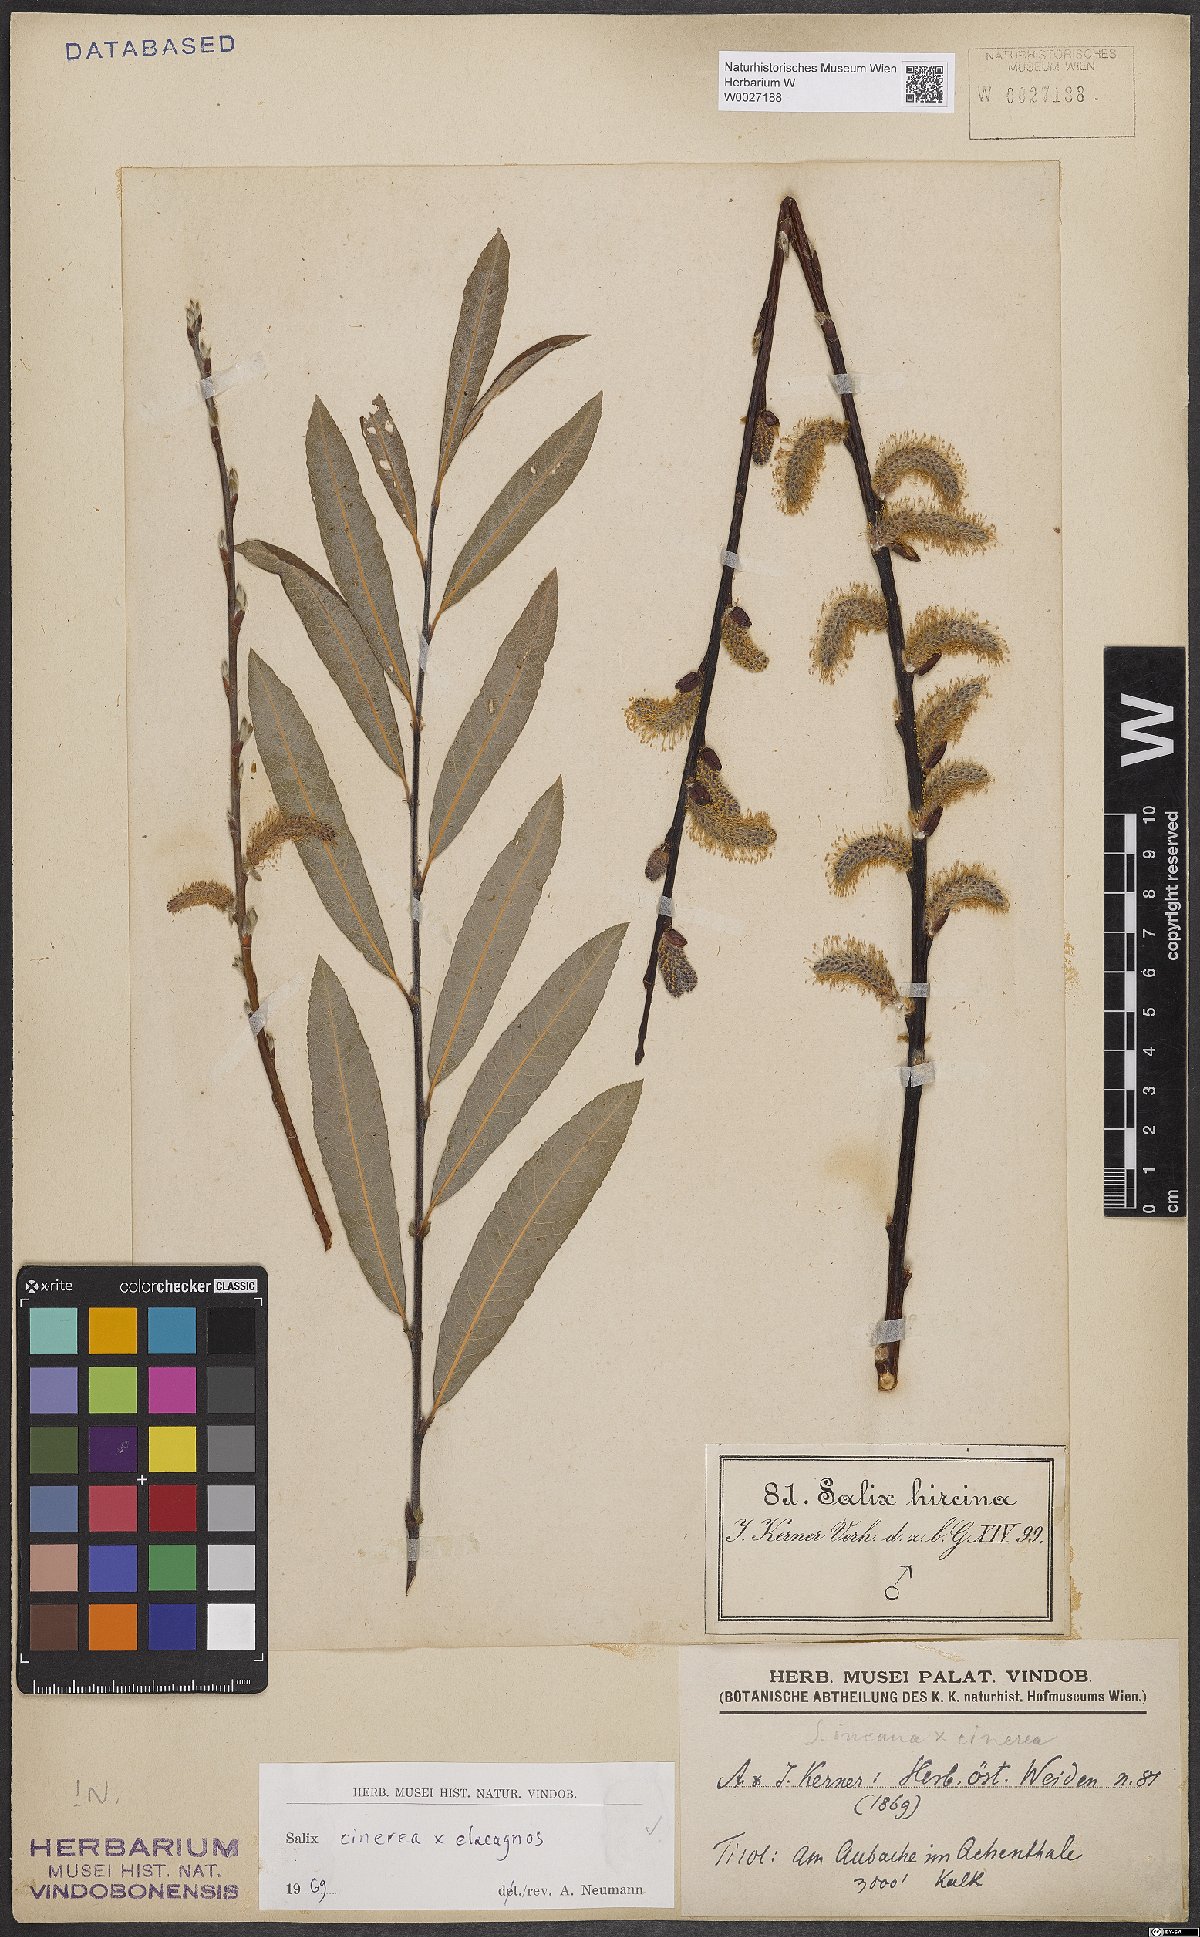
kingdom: Plantae
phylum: Tracheophyta
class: Magnoliopsida
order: Malpighiales
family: Salicaceae
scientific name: Salicaceae
